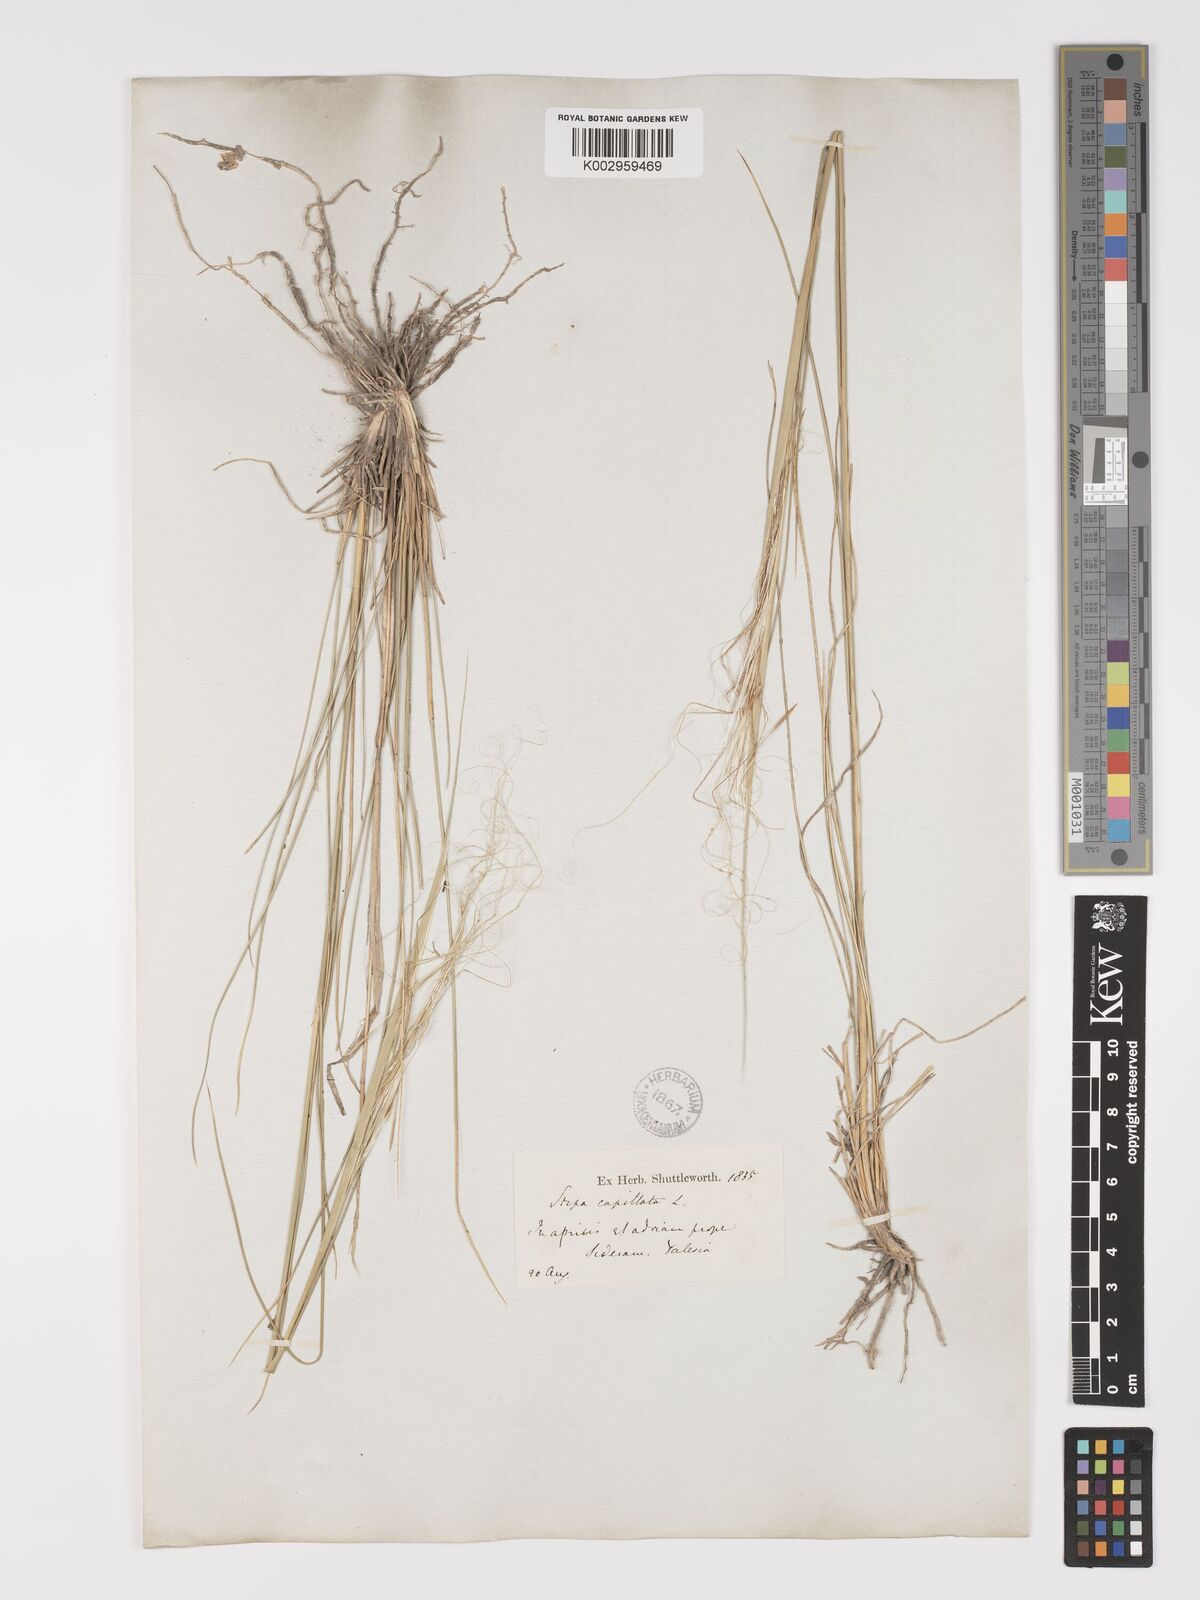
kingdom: Plantae
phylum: Tracheophyta
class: Liliopsida
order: Poales
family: Poaceae
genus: Stipa
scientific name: Stipa capillata
